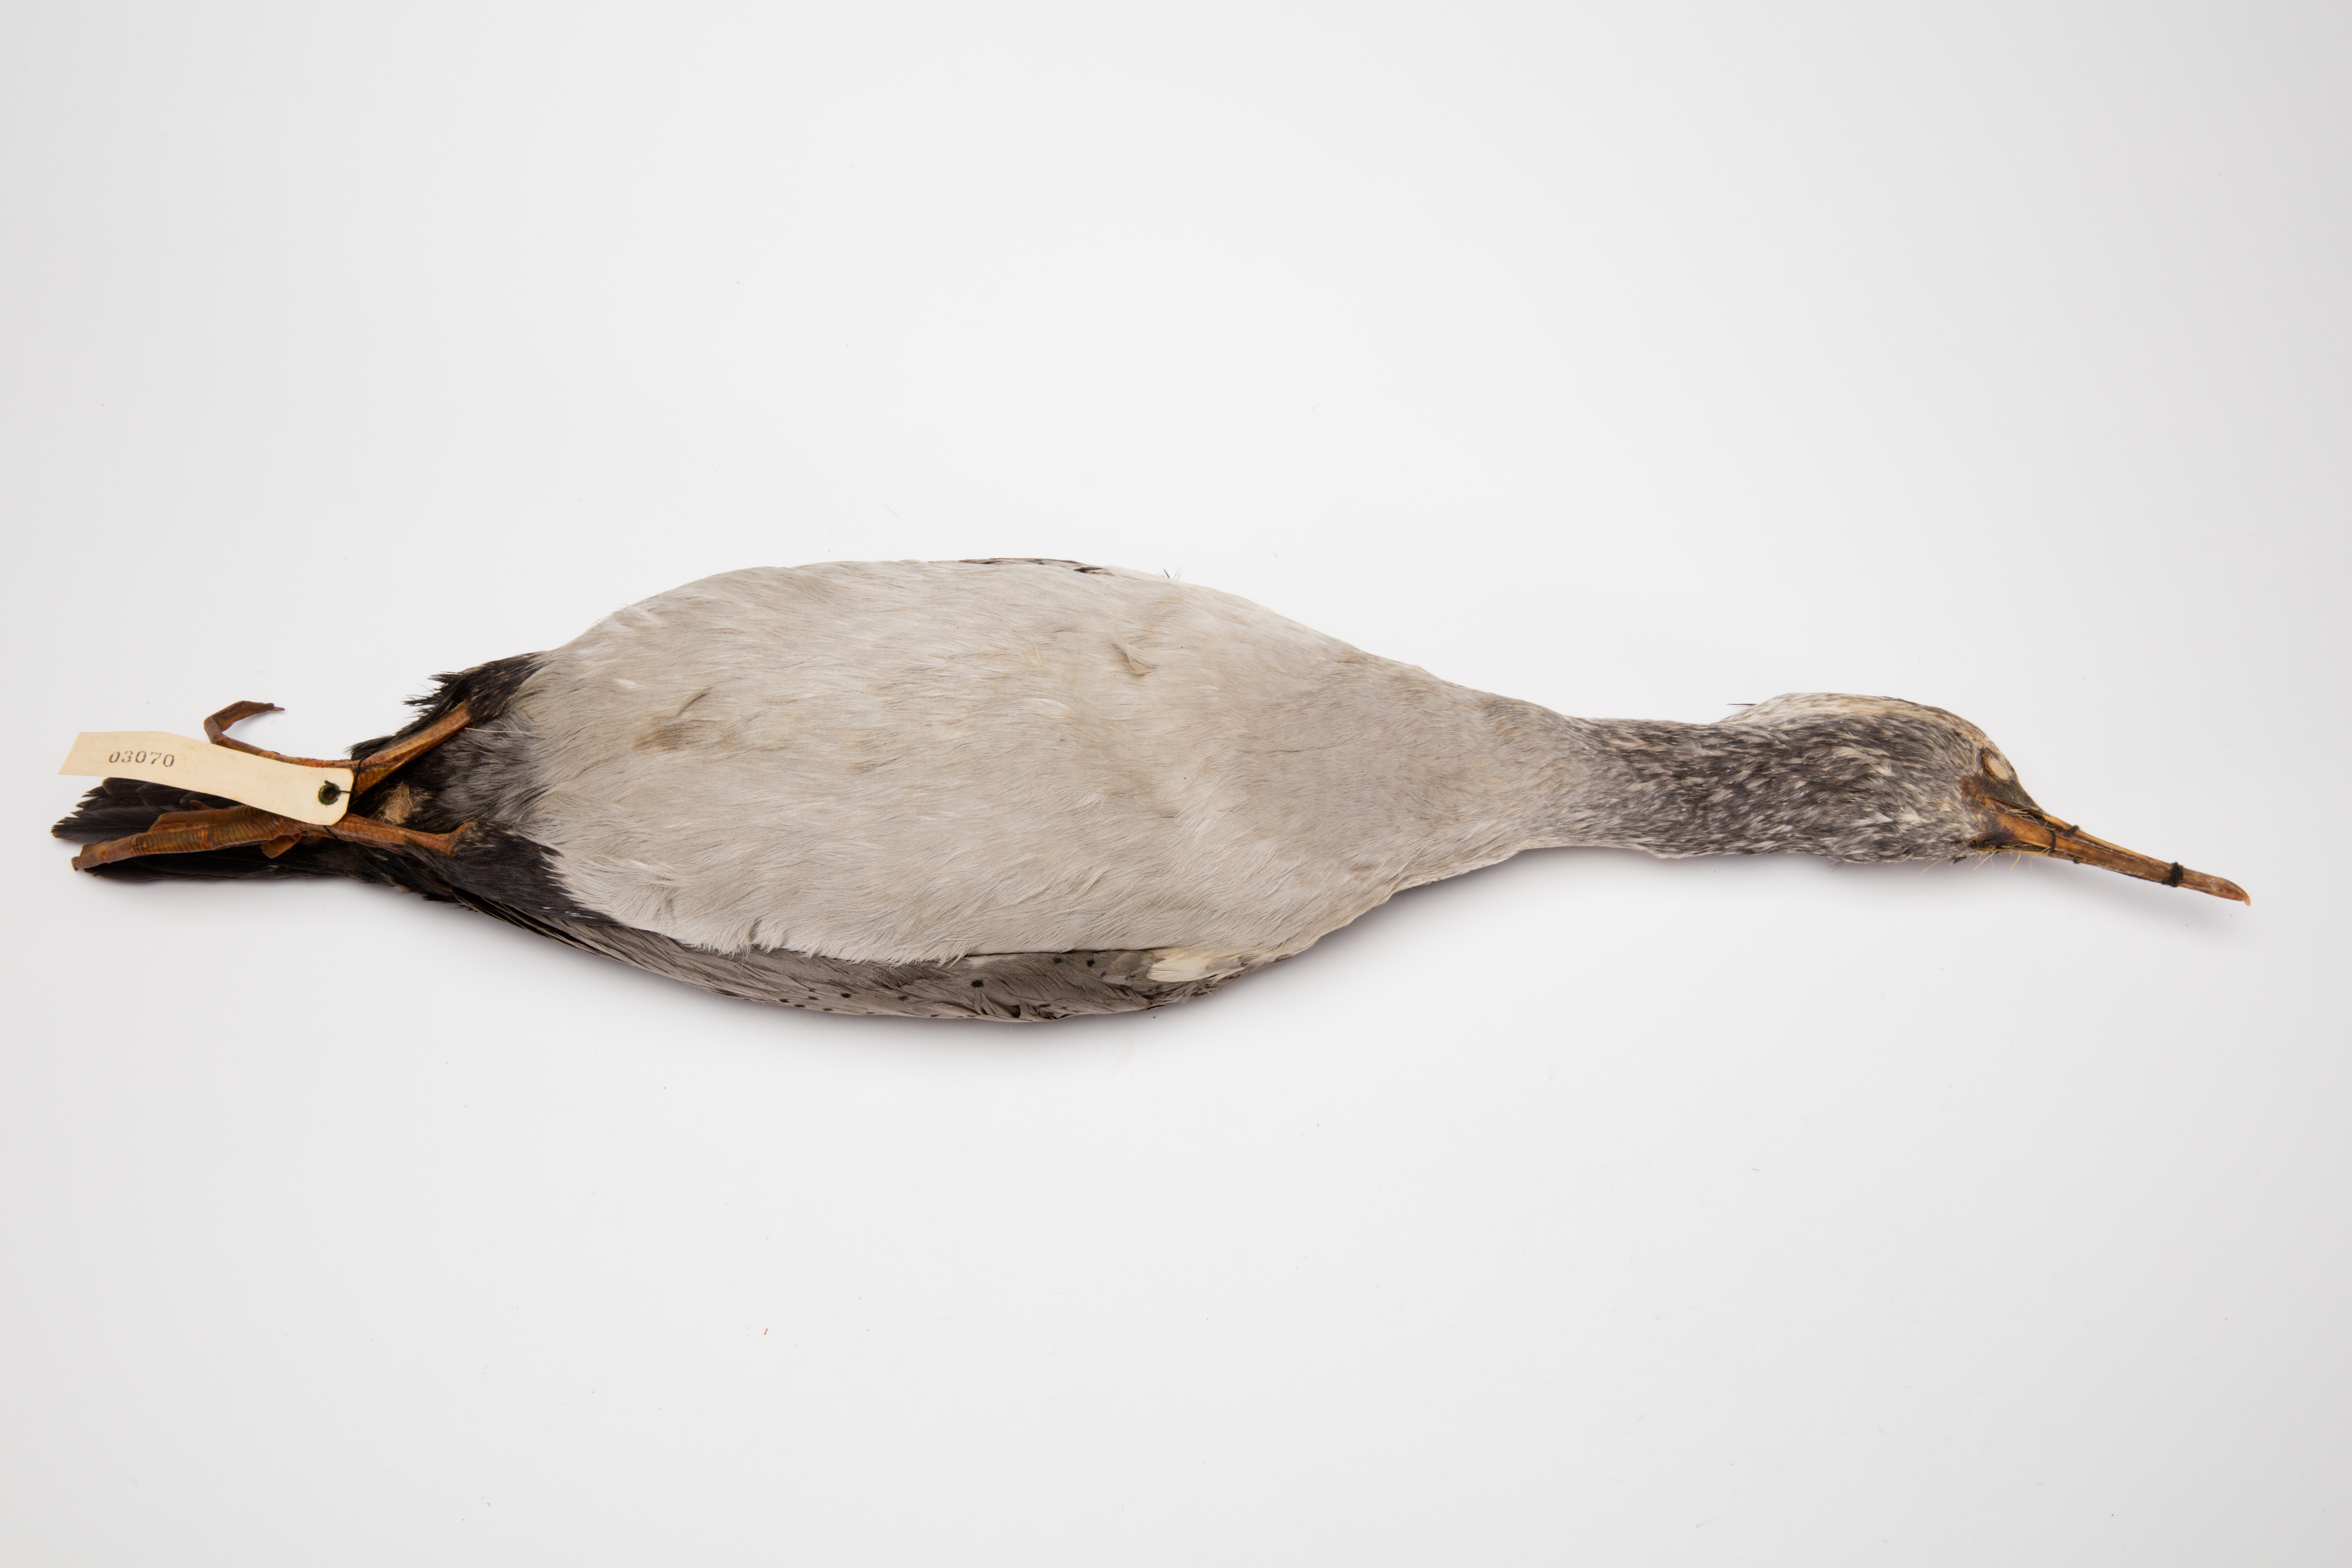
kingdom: Animalia
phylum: Chordata
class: Aves
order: Suliformes
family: Phalacrocoracidae
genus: Phalacrocorax
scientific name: Phalacrocorax punctatus
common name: Spotted shag
